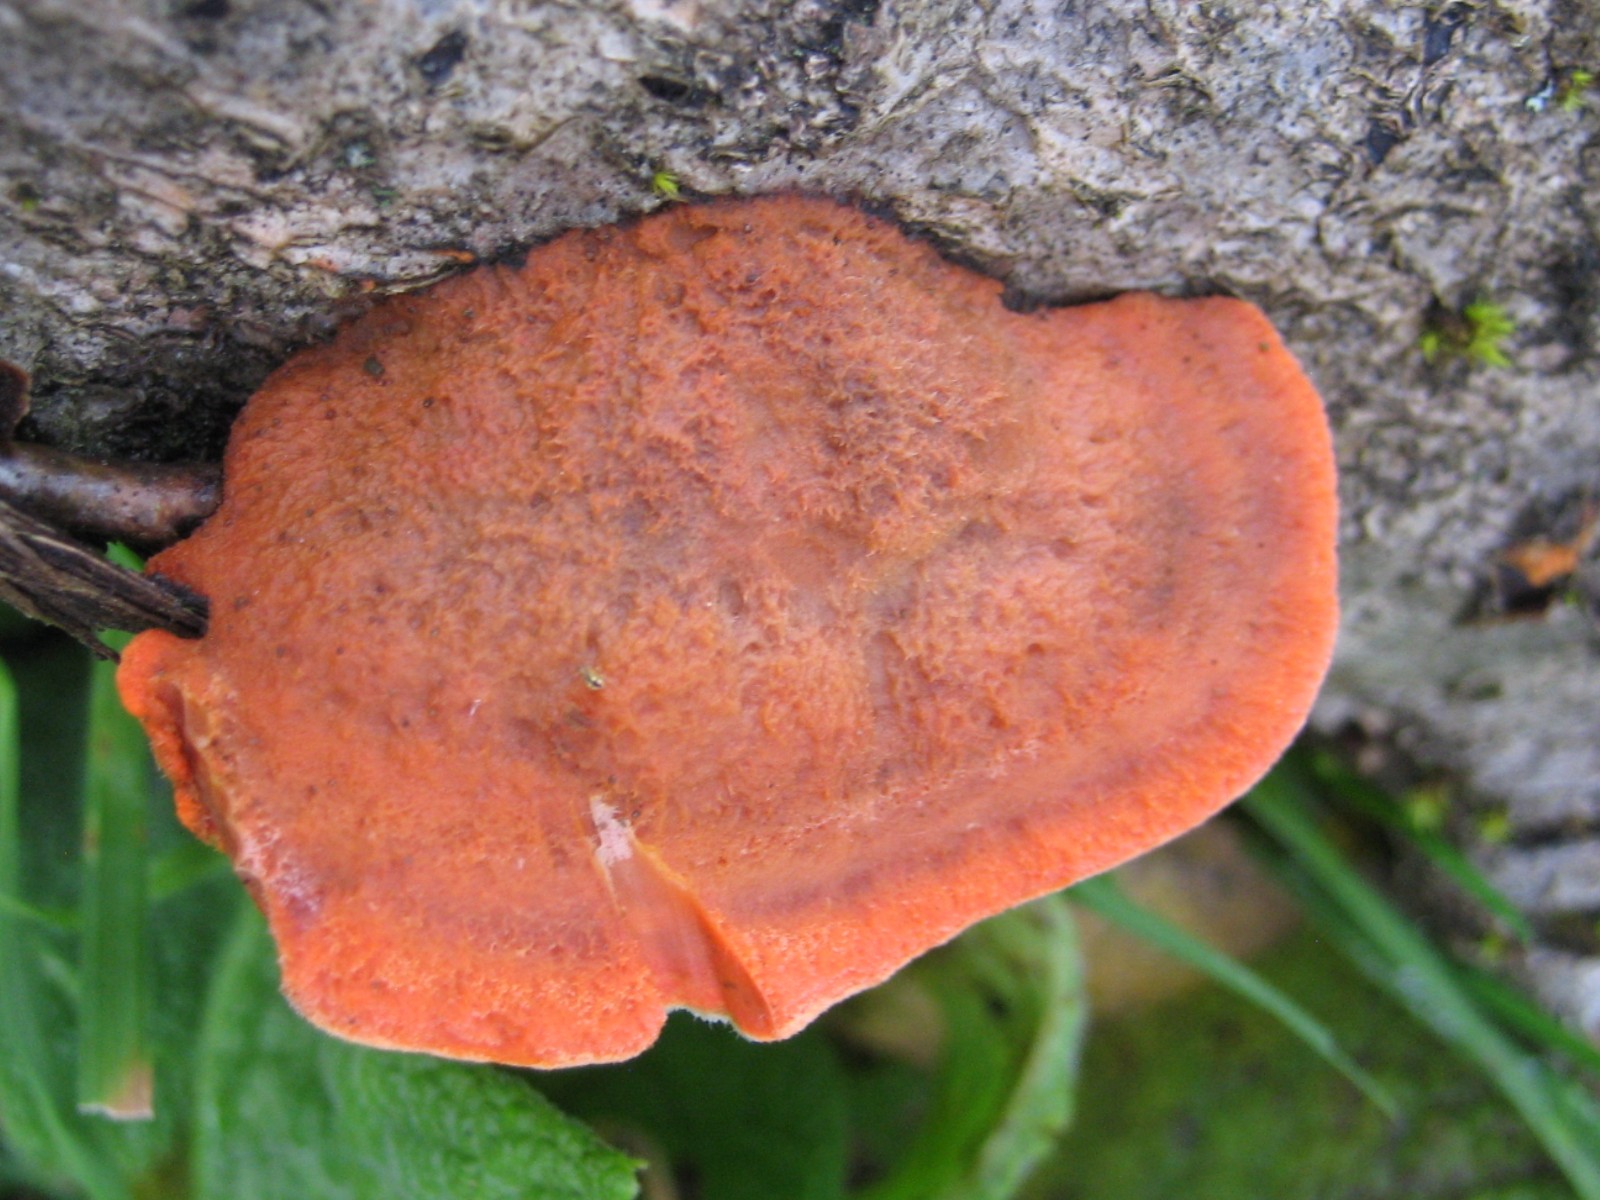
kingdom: Fungi
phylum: Basidiomycota
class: Agaricomycetes
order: Polyporales
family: Polyporaceae
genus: Trametes
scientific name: Trametes cinnabarina
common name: cinnoberporesvamp
